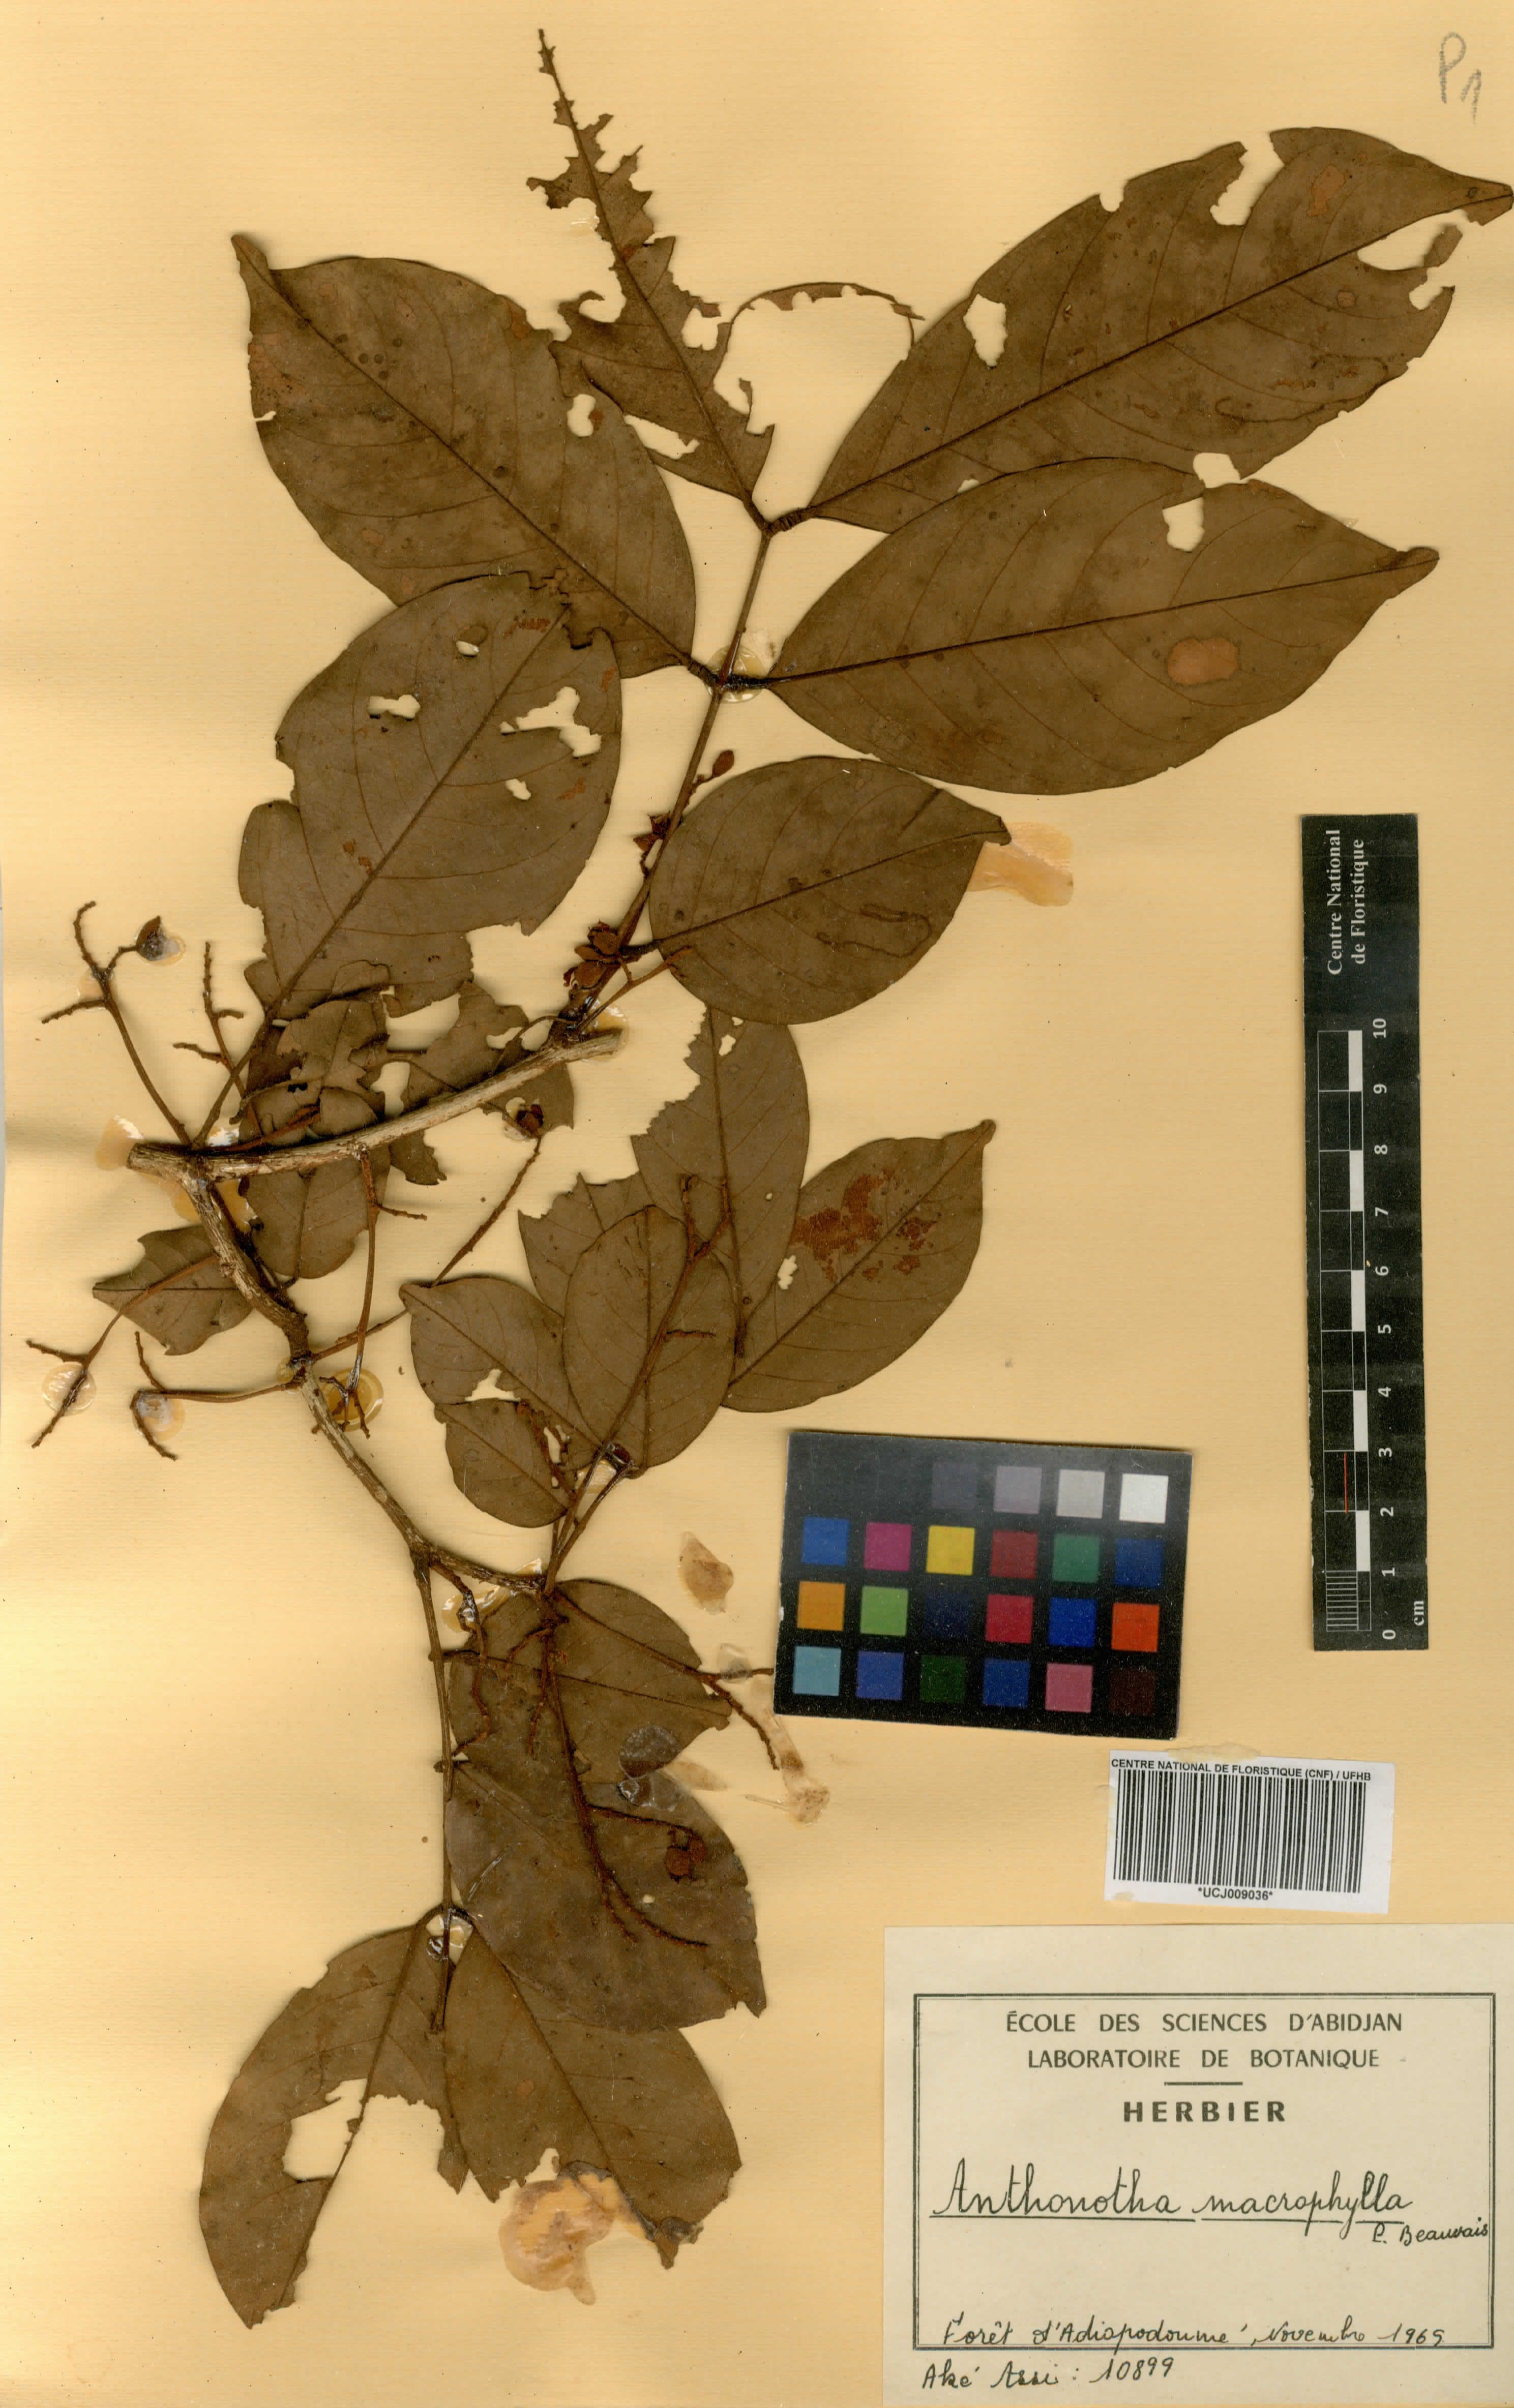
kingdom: Plantae
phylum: Tracheophyta
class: Magnoliopsida
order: Fabales
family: Fabaceae
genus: Anthonotha
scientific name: Anthonotha macrophylla
